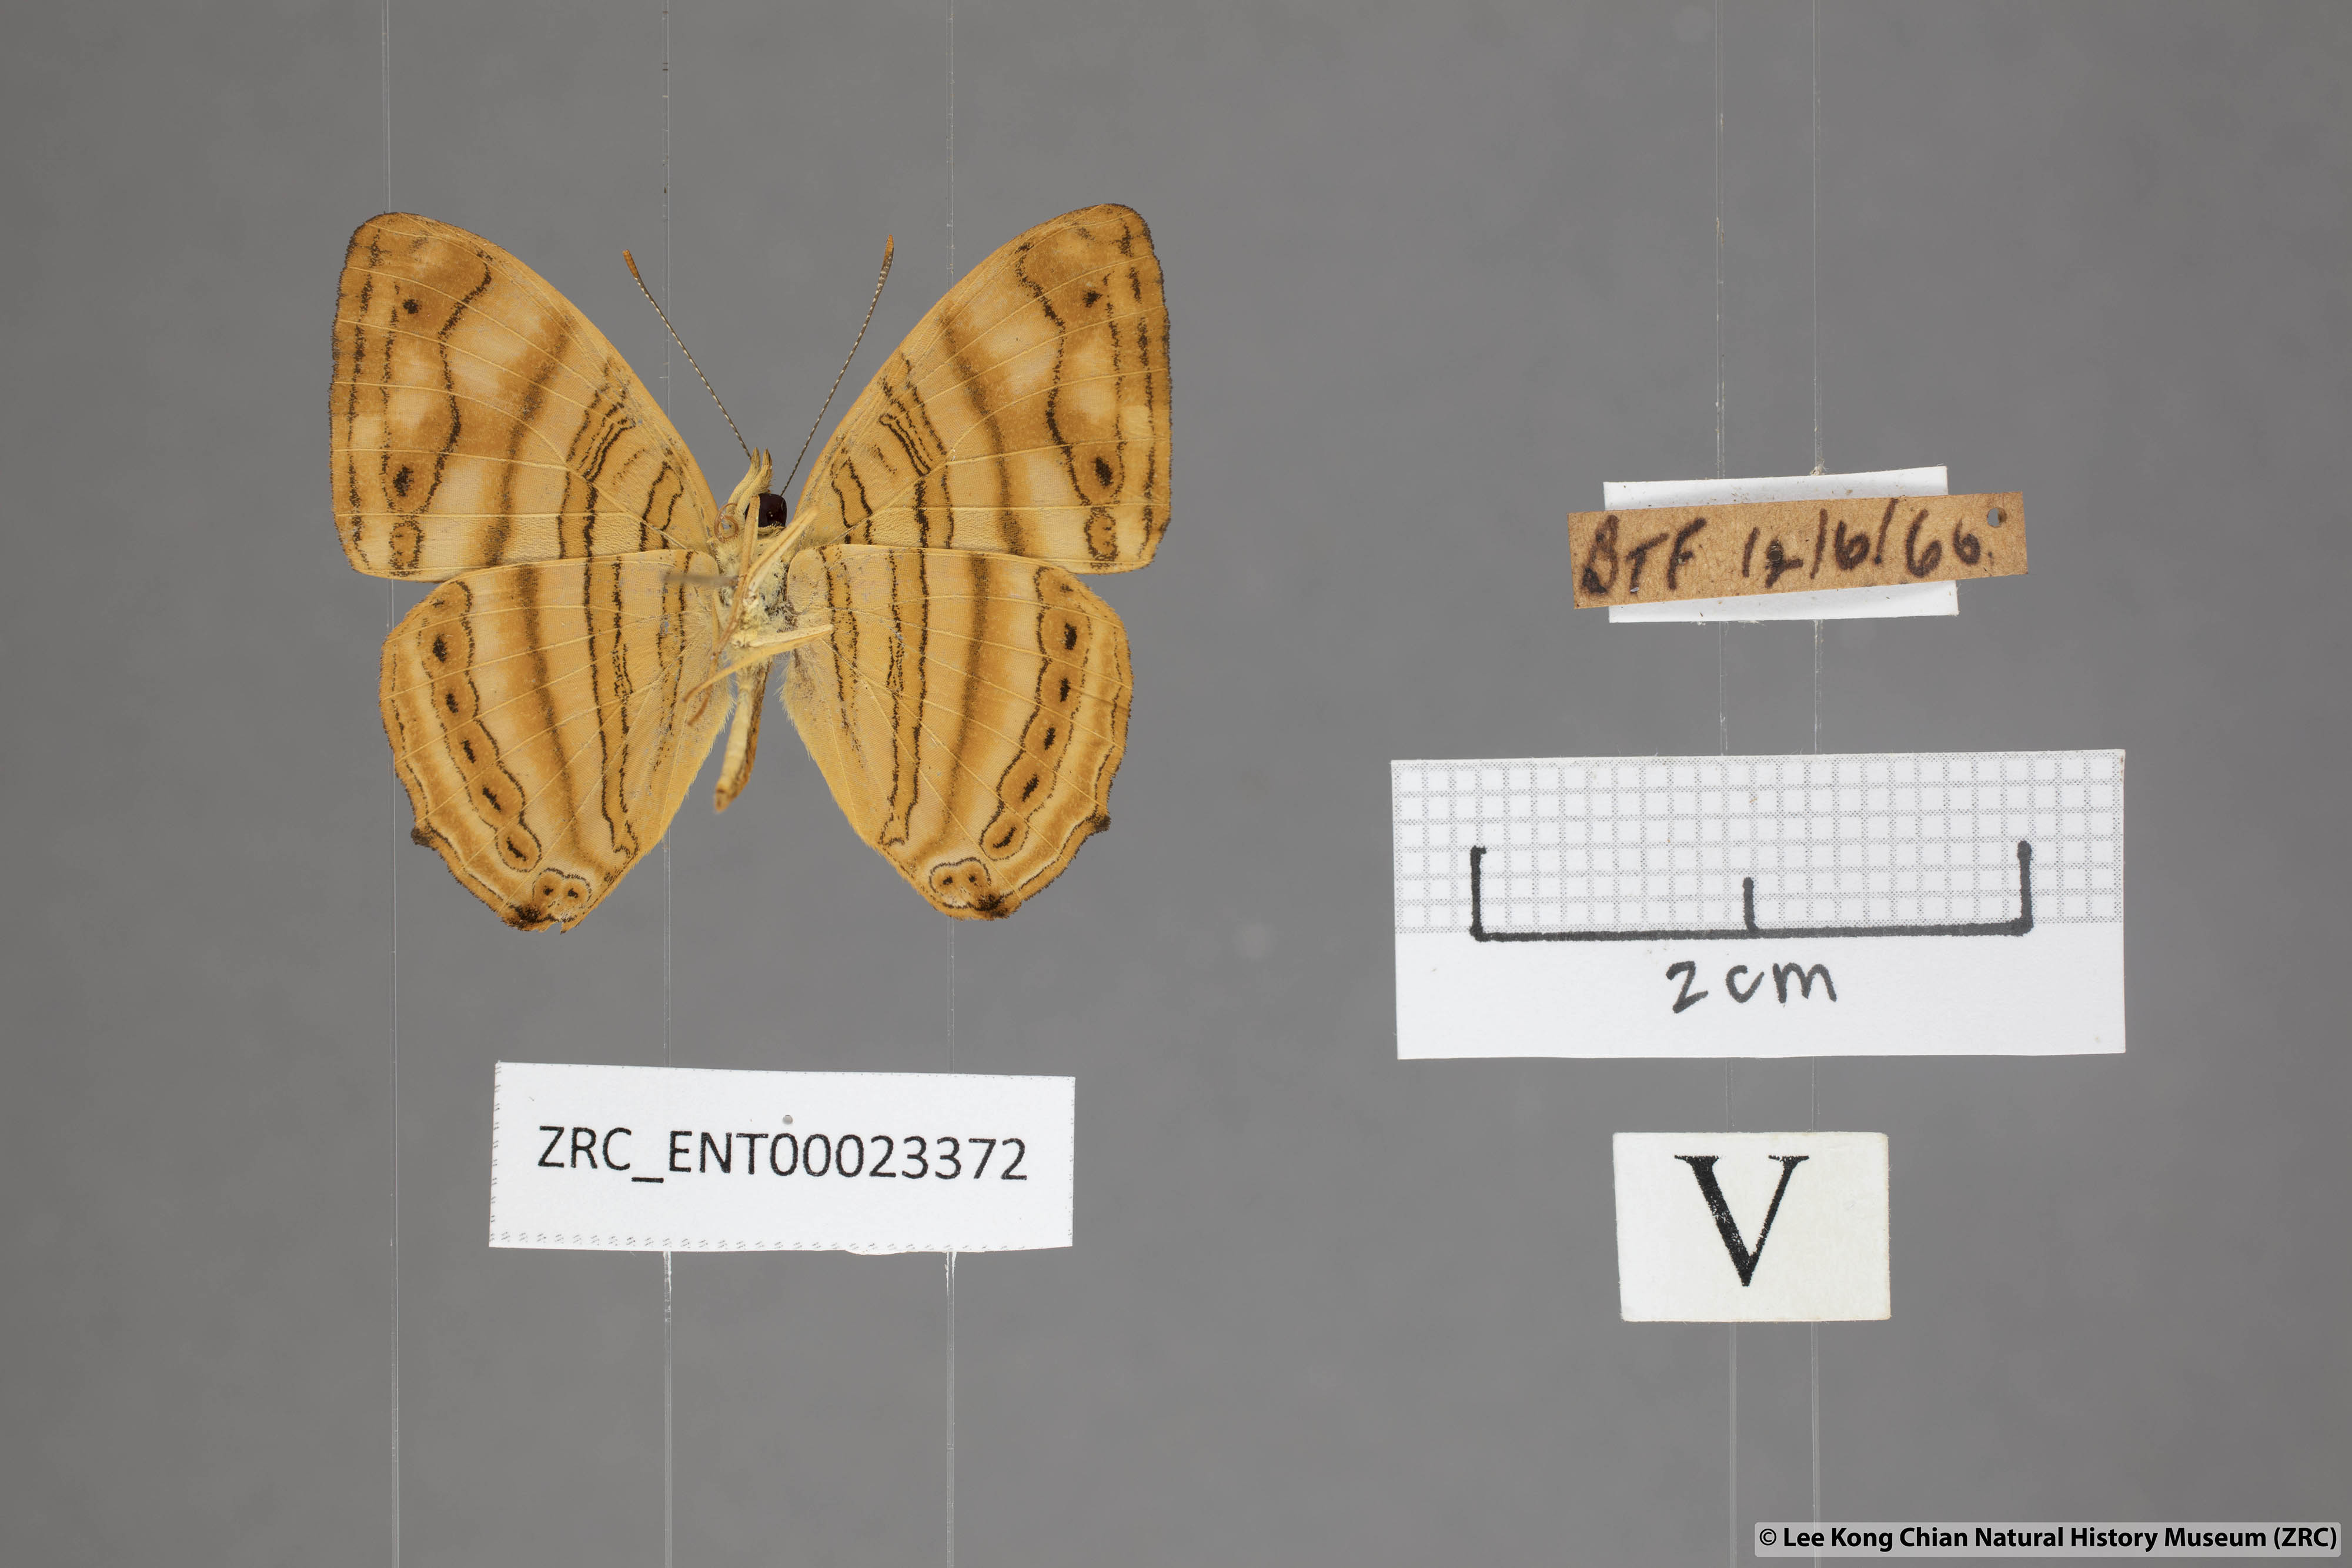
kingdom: Animalia
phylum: Arthropoda
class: Insecta
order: Lepidoptera
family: Nymphalidae
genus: Chersonesia
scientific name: Chersonesia rahria
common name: Wavy maplet
